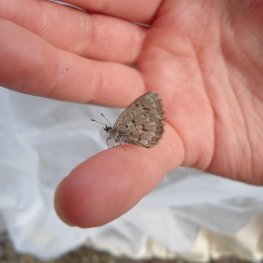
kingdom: Animalia
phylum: Arthropoda
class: Insecta
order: Lepidoptera
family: Lycaenidae
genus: Celastrina
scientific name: Celastrina lucia
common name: Northern Spring Azure
